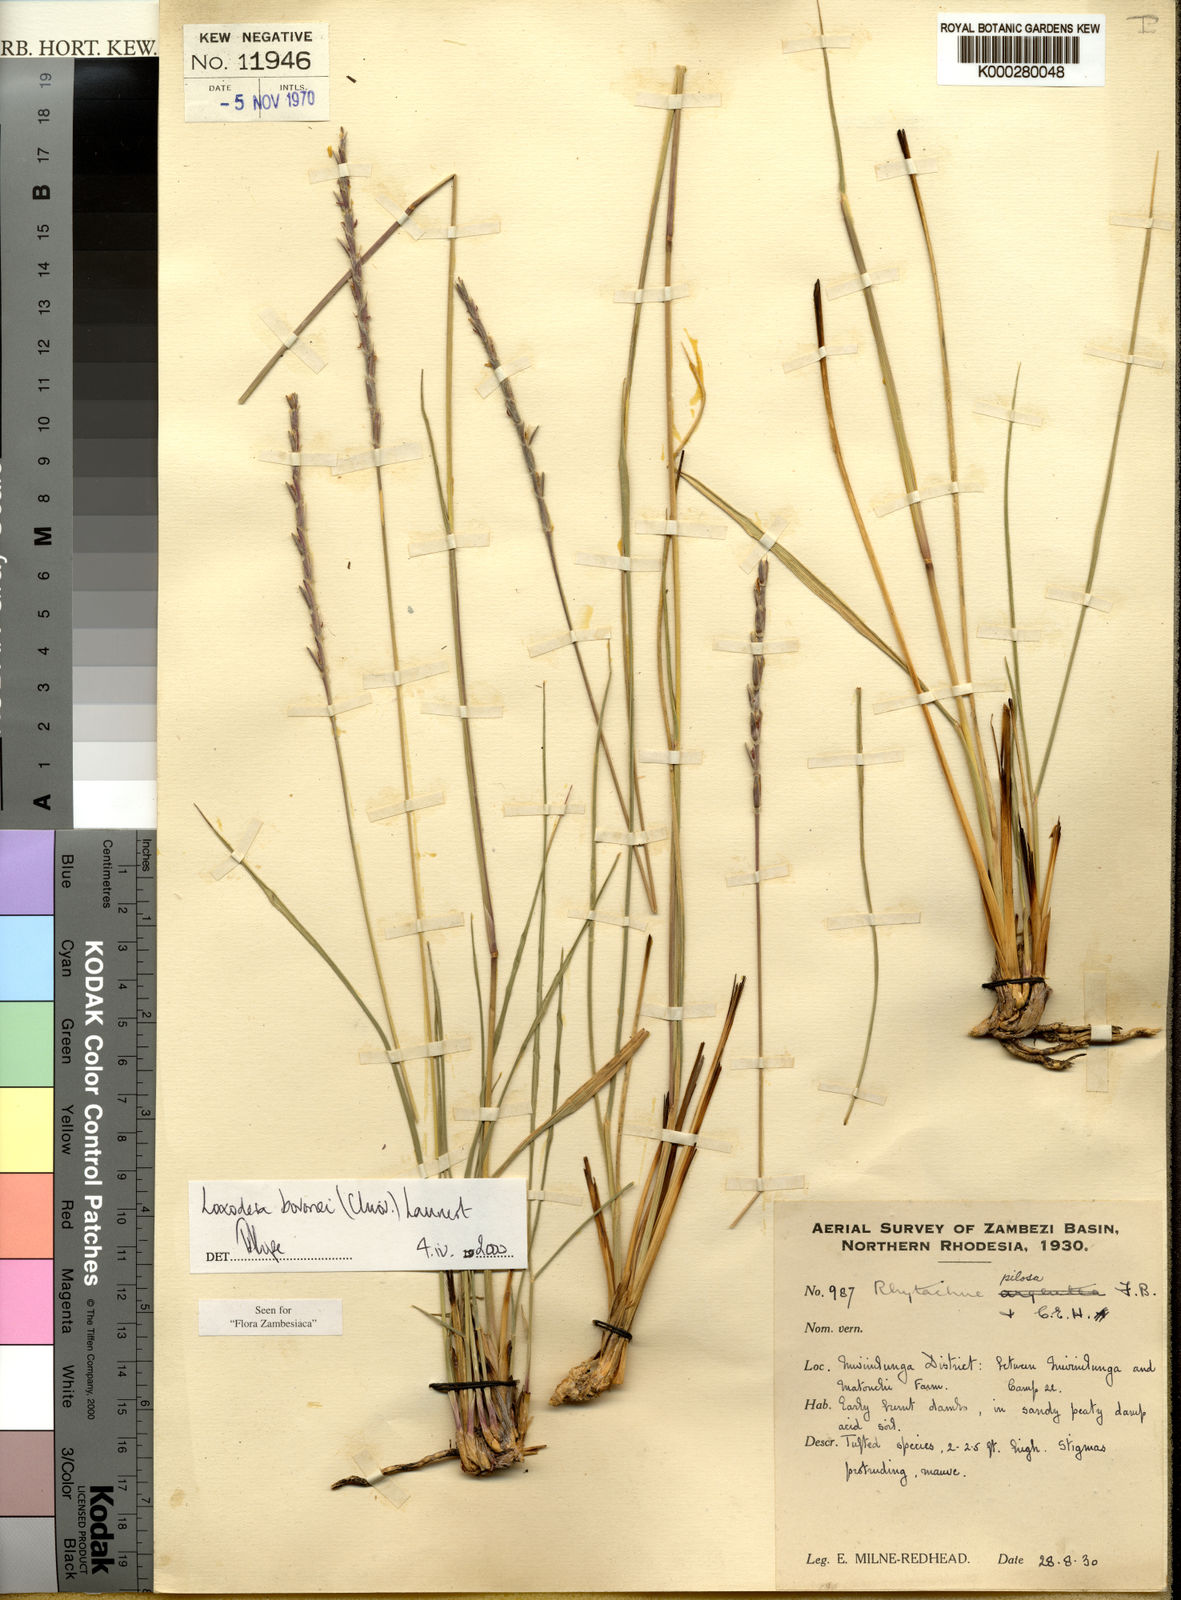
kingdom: Plantae
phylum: Tracheophyta
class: Liliopsida
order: Poales
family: Poaceae
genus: Loxodera
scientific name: Loxodera bovonei
